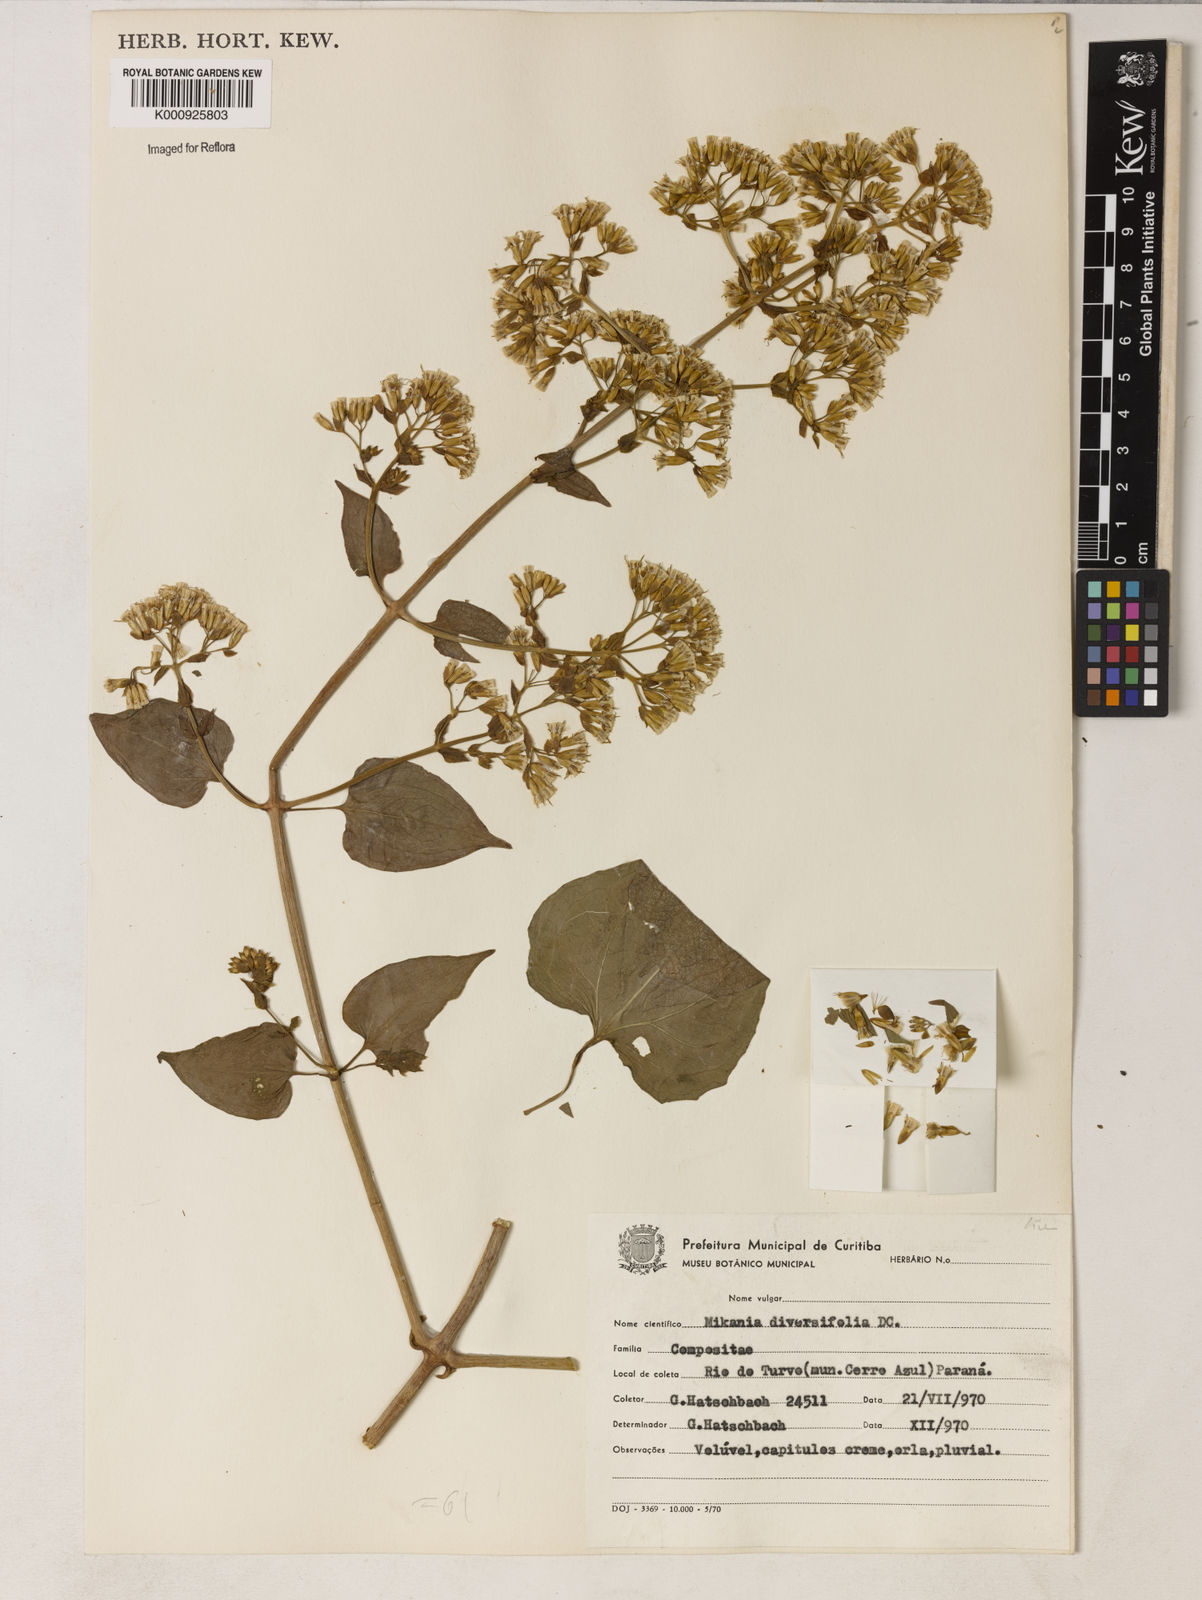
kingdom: Plantae
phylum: Tracheophyta
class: Magnoliopsida
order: Asterales
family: Asteraceae
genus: Mikania
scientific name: Mikania diversifolia
